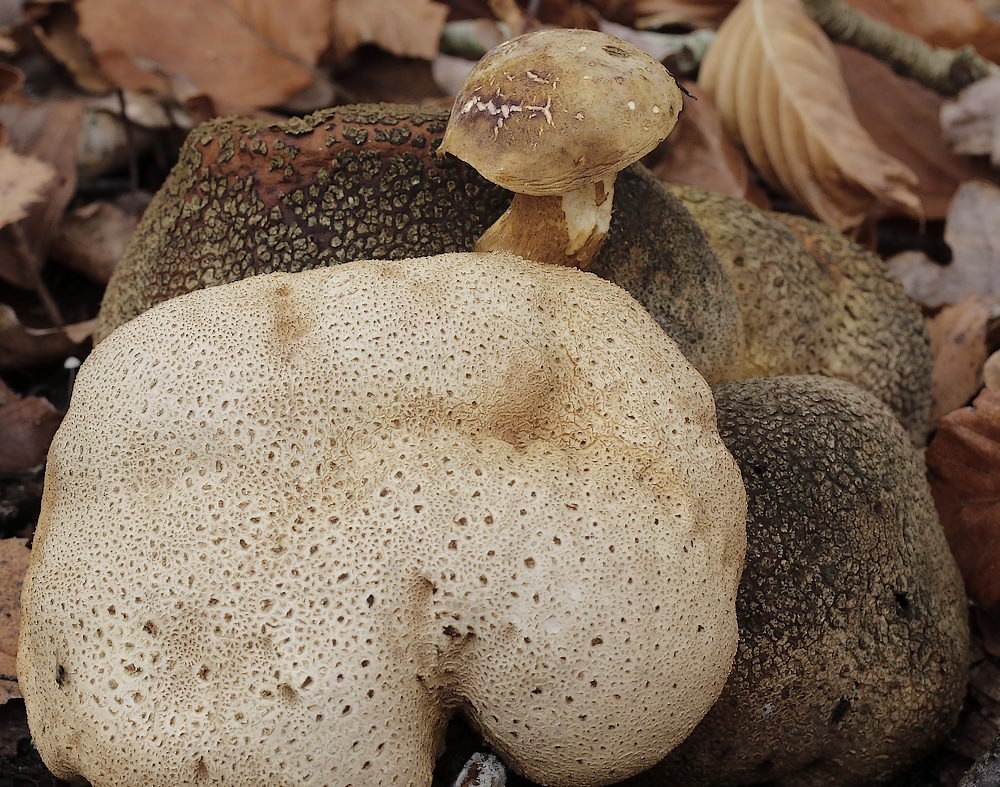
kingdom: Fungi
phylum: Basidiomycota
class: Agaricomycetes
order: Boletales
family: Boletaceae
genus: Pseudoboletus
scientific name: Pseudoboletus parasiticus
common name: snyltende rørhat
